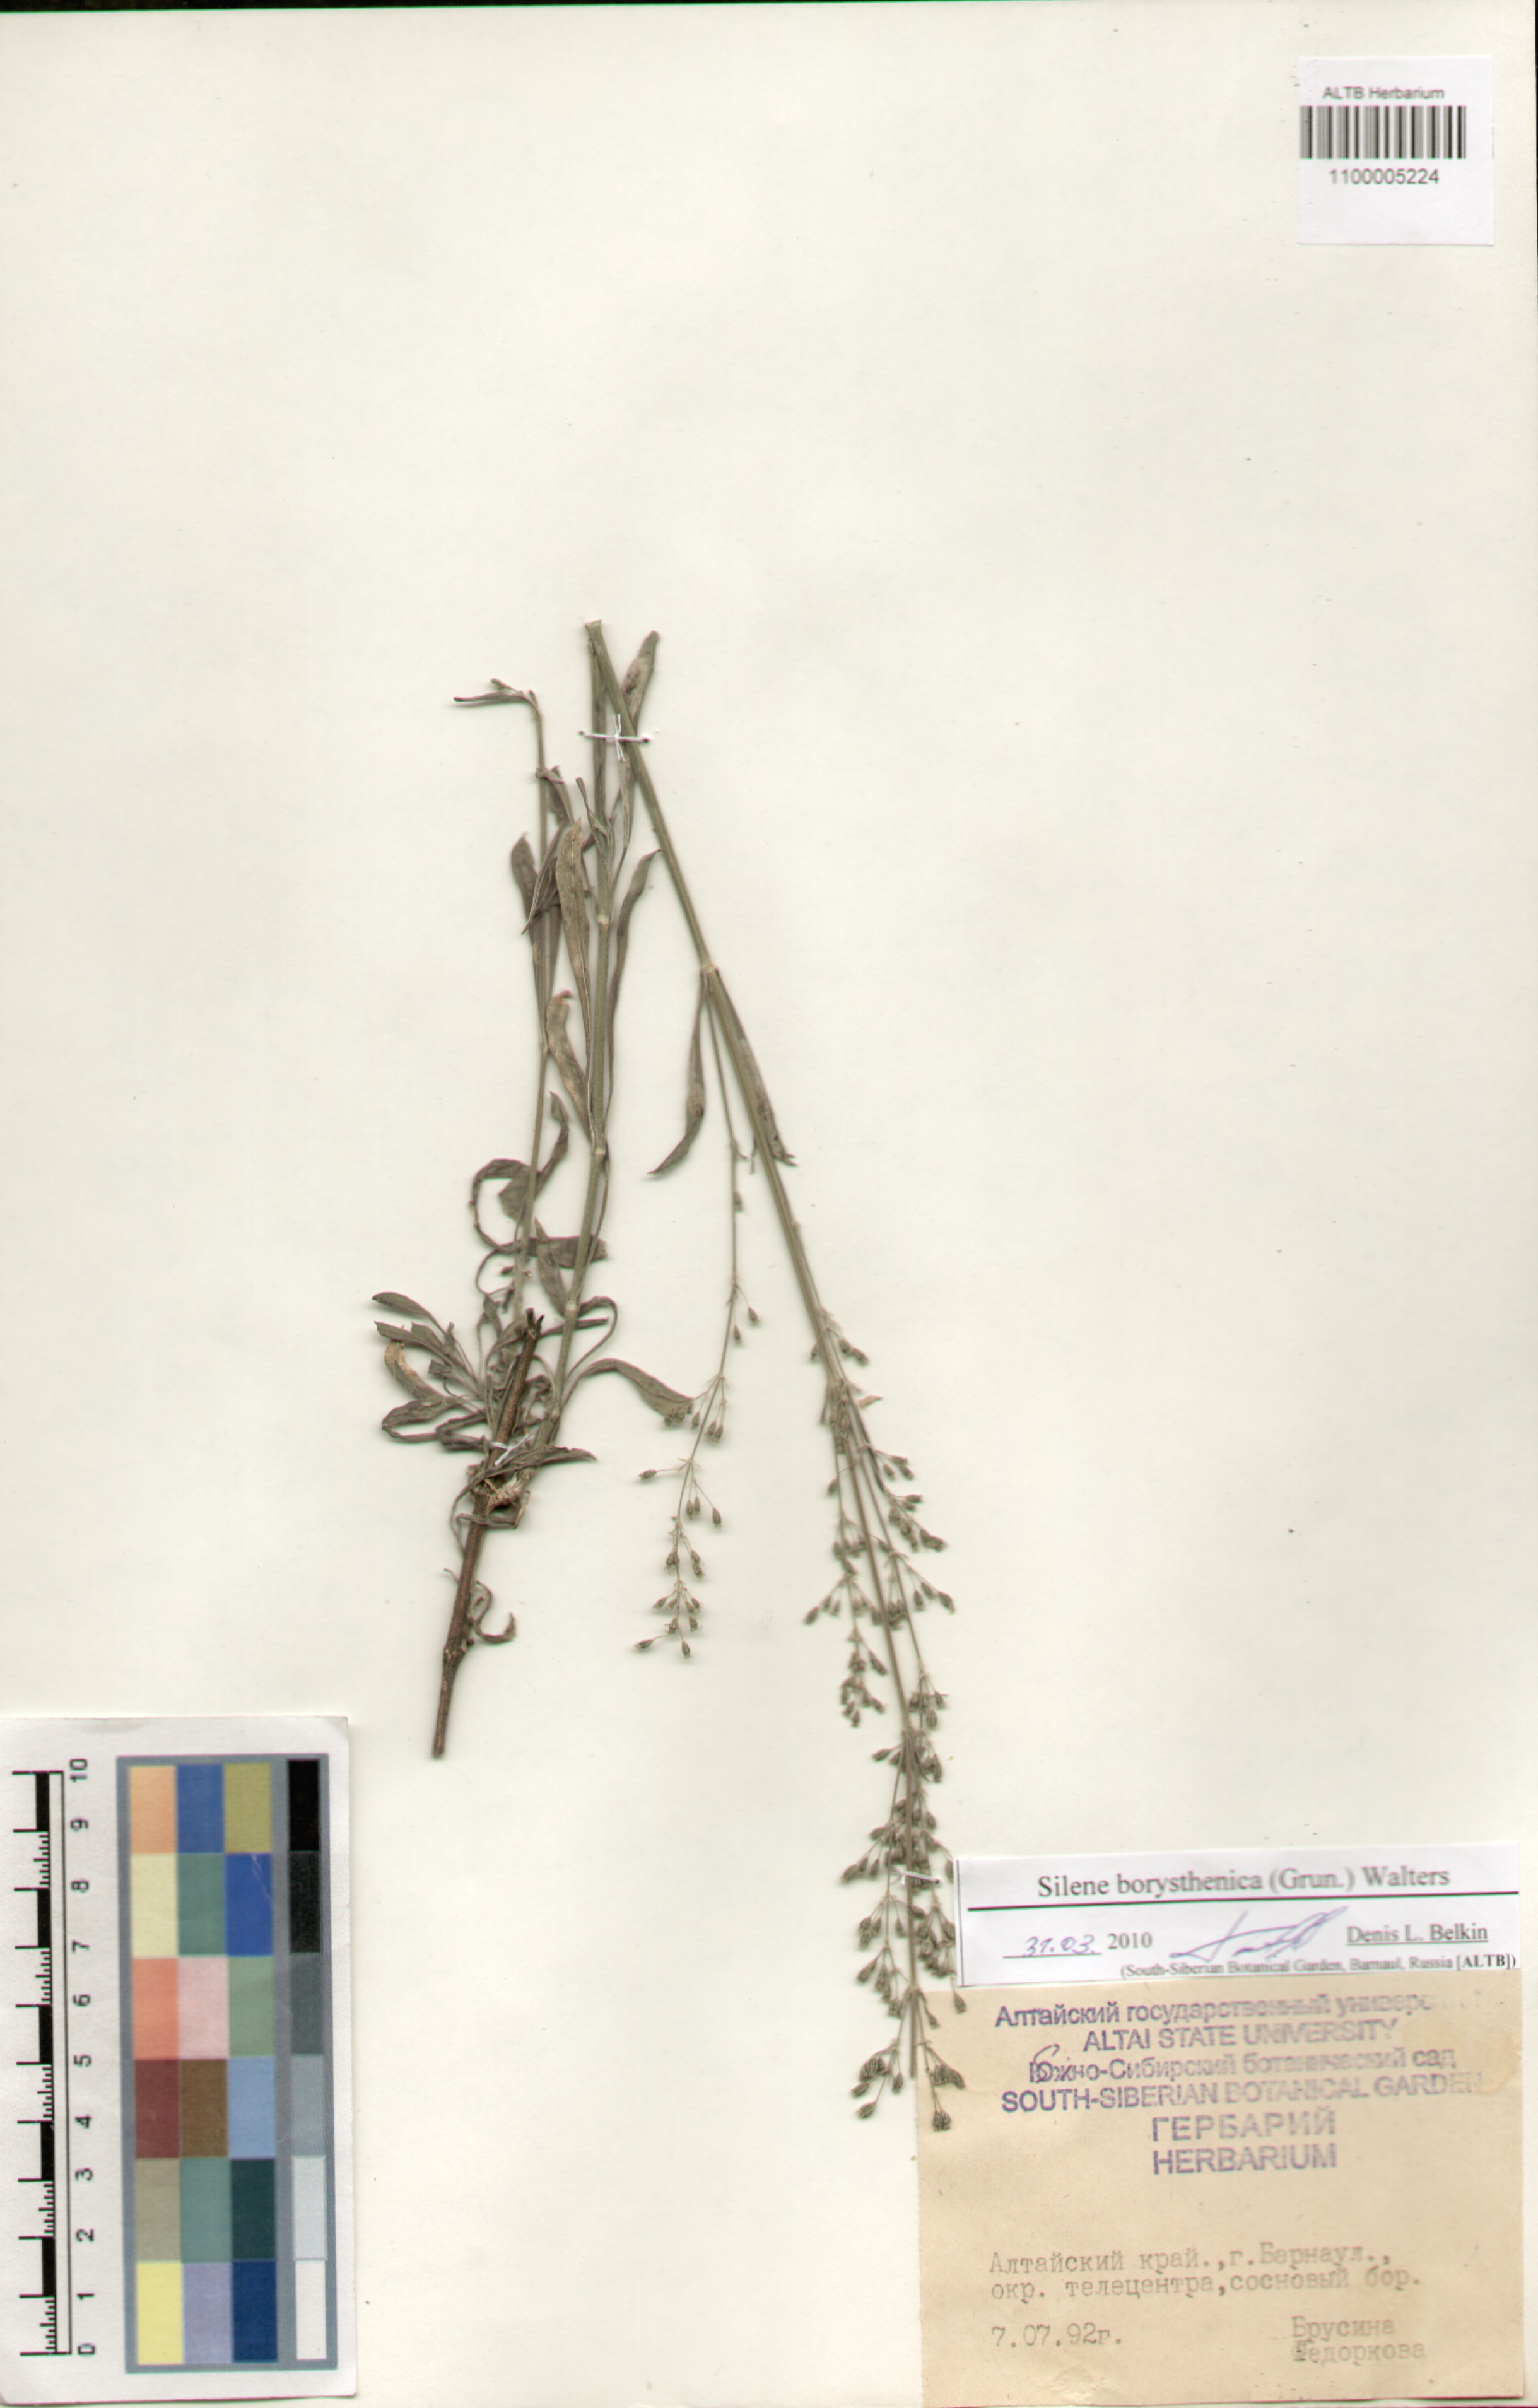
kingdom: Plantae
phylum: Tracheophyta
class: Magnoliopsida
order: Caryophyllales
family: Caryophyllaceae
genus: Silene
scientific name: Silene borysthenica
